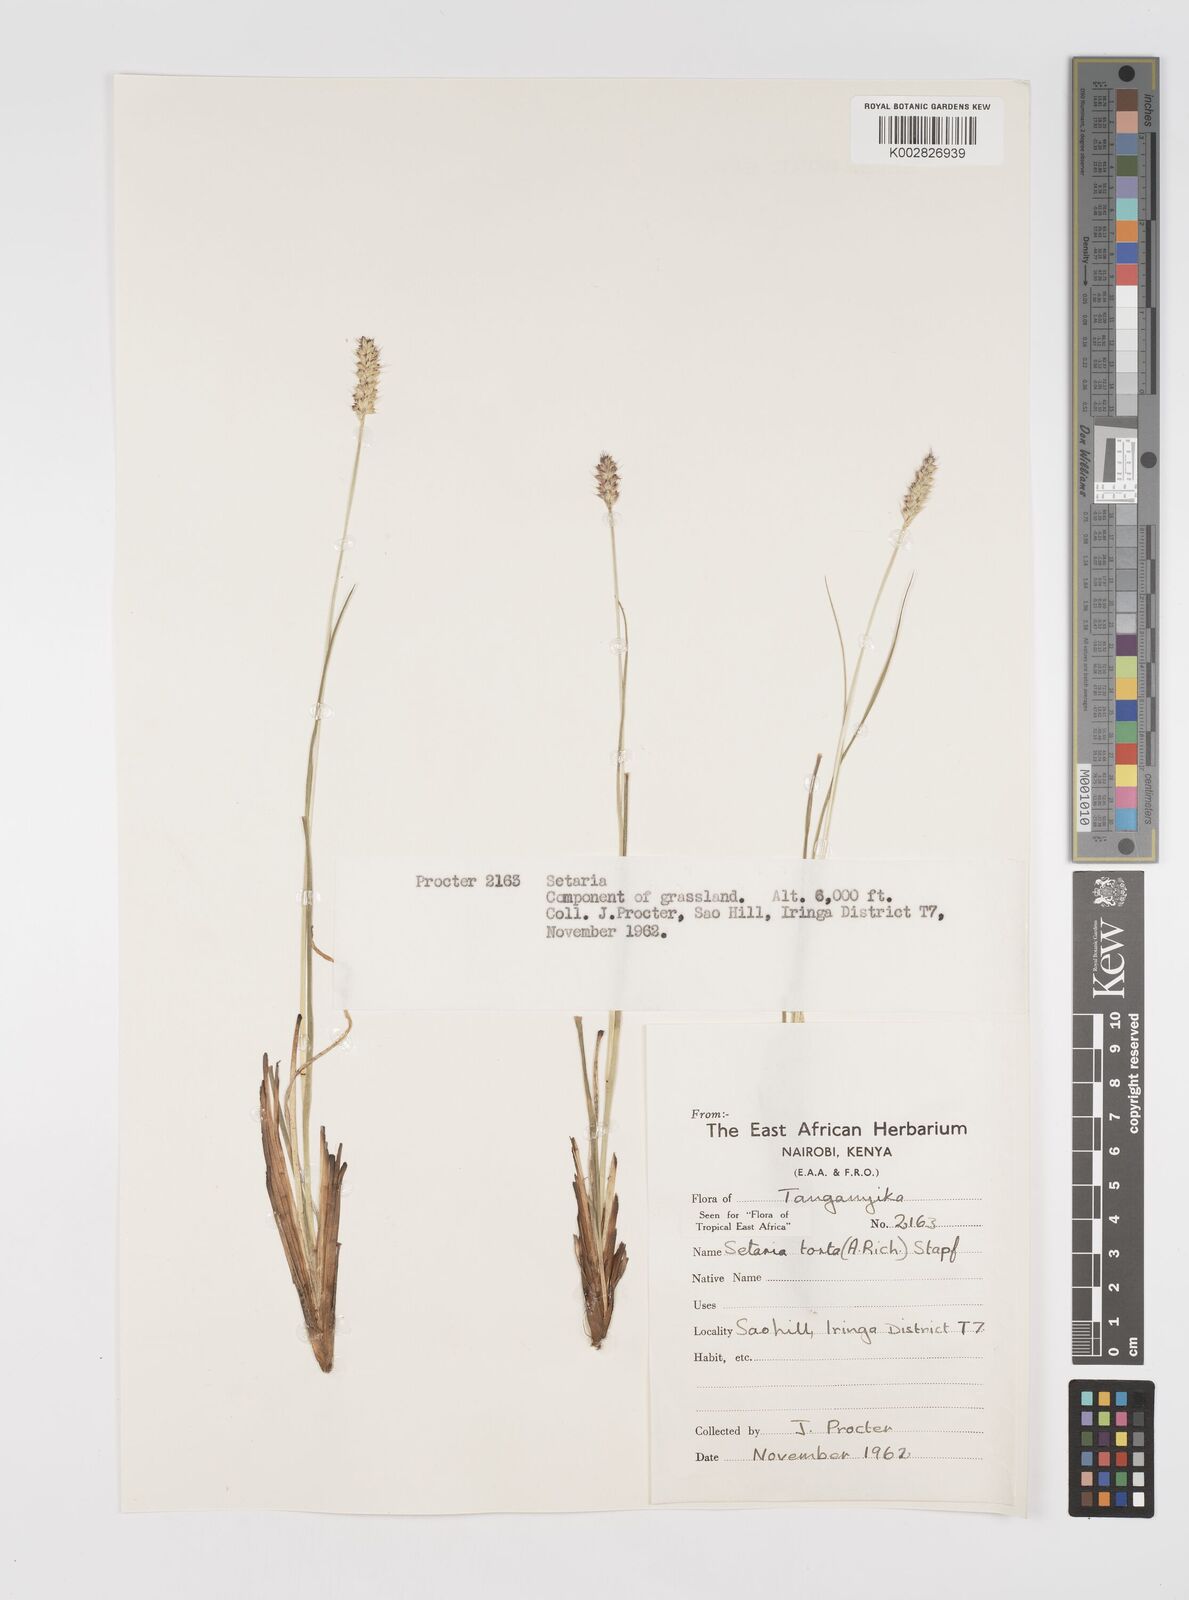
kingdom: Plantae
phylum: Tracheophyta
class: Liliopsida
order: Poales
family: Poaceae
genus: Setaria
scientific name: Setaria sphacelata
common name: African bristlegrass
